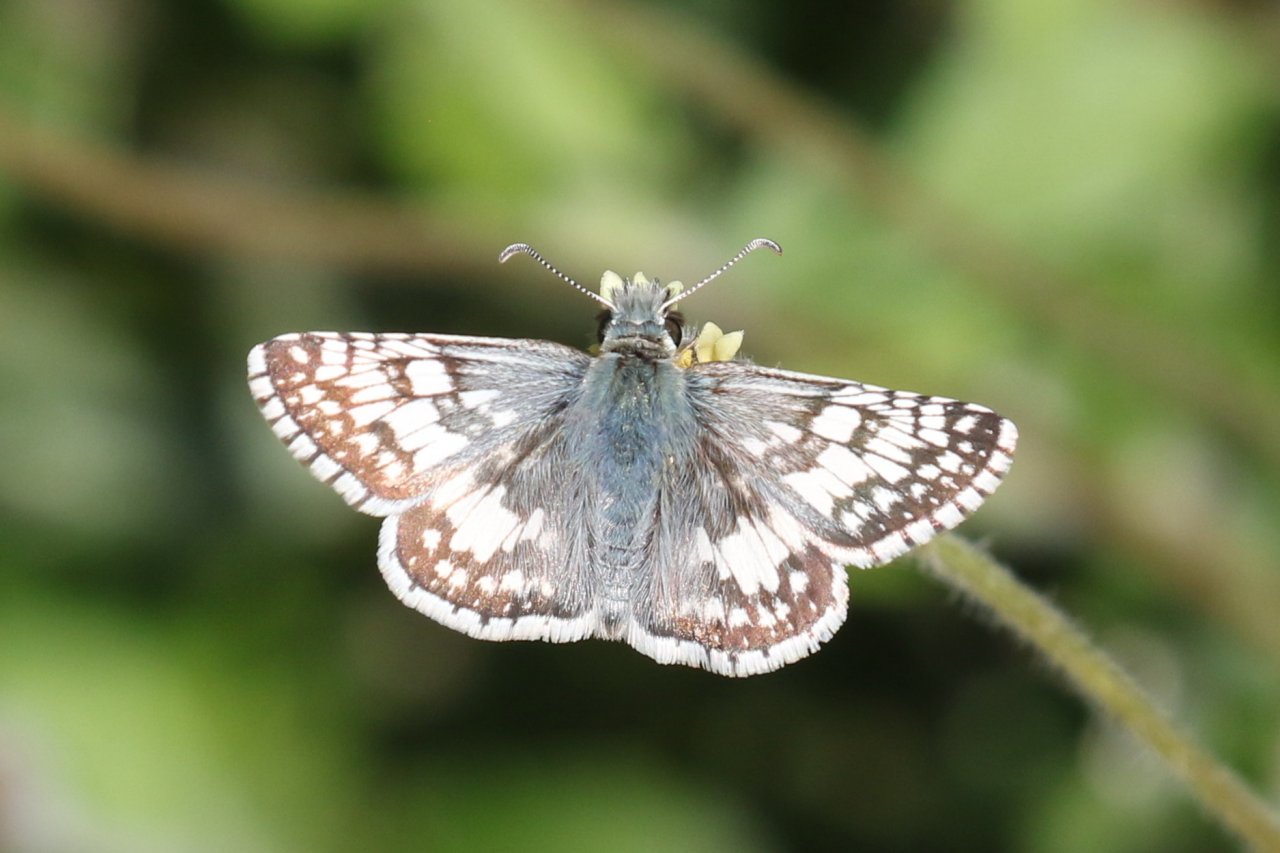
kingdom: Animalia
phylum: Arthropoda
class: Insecta
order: Lepidoptera
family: Hesperiidae
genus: Pyrgus
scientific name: Pyrgus communis
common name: White Checkered-Skipper
